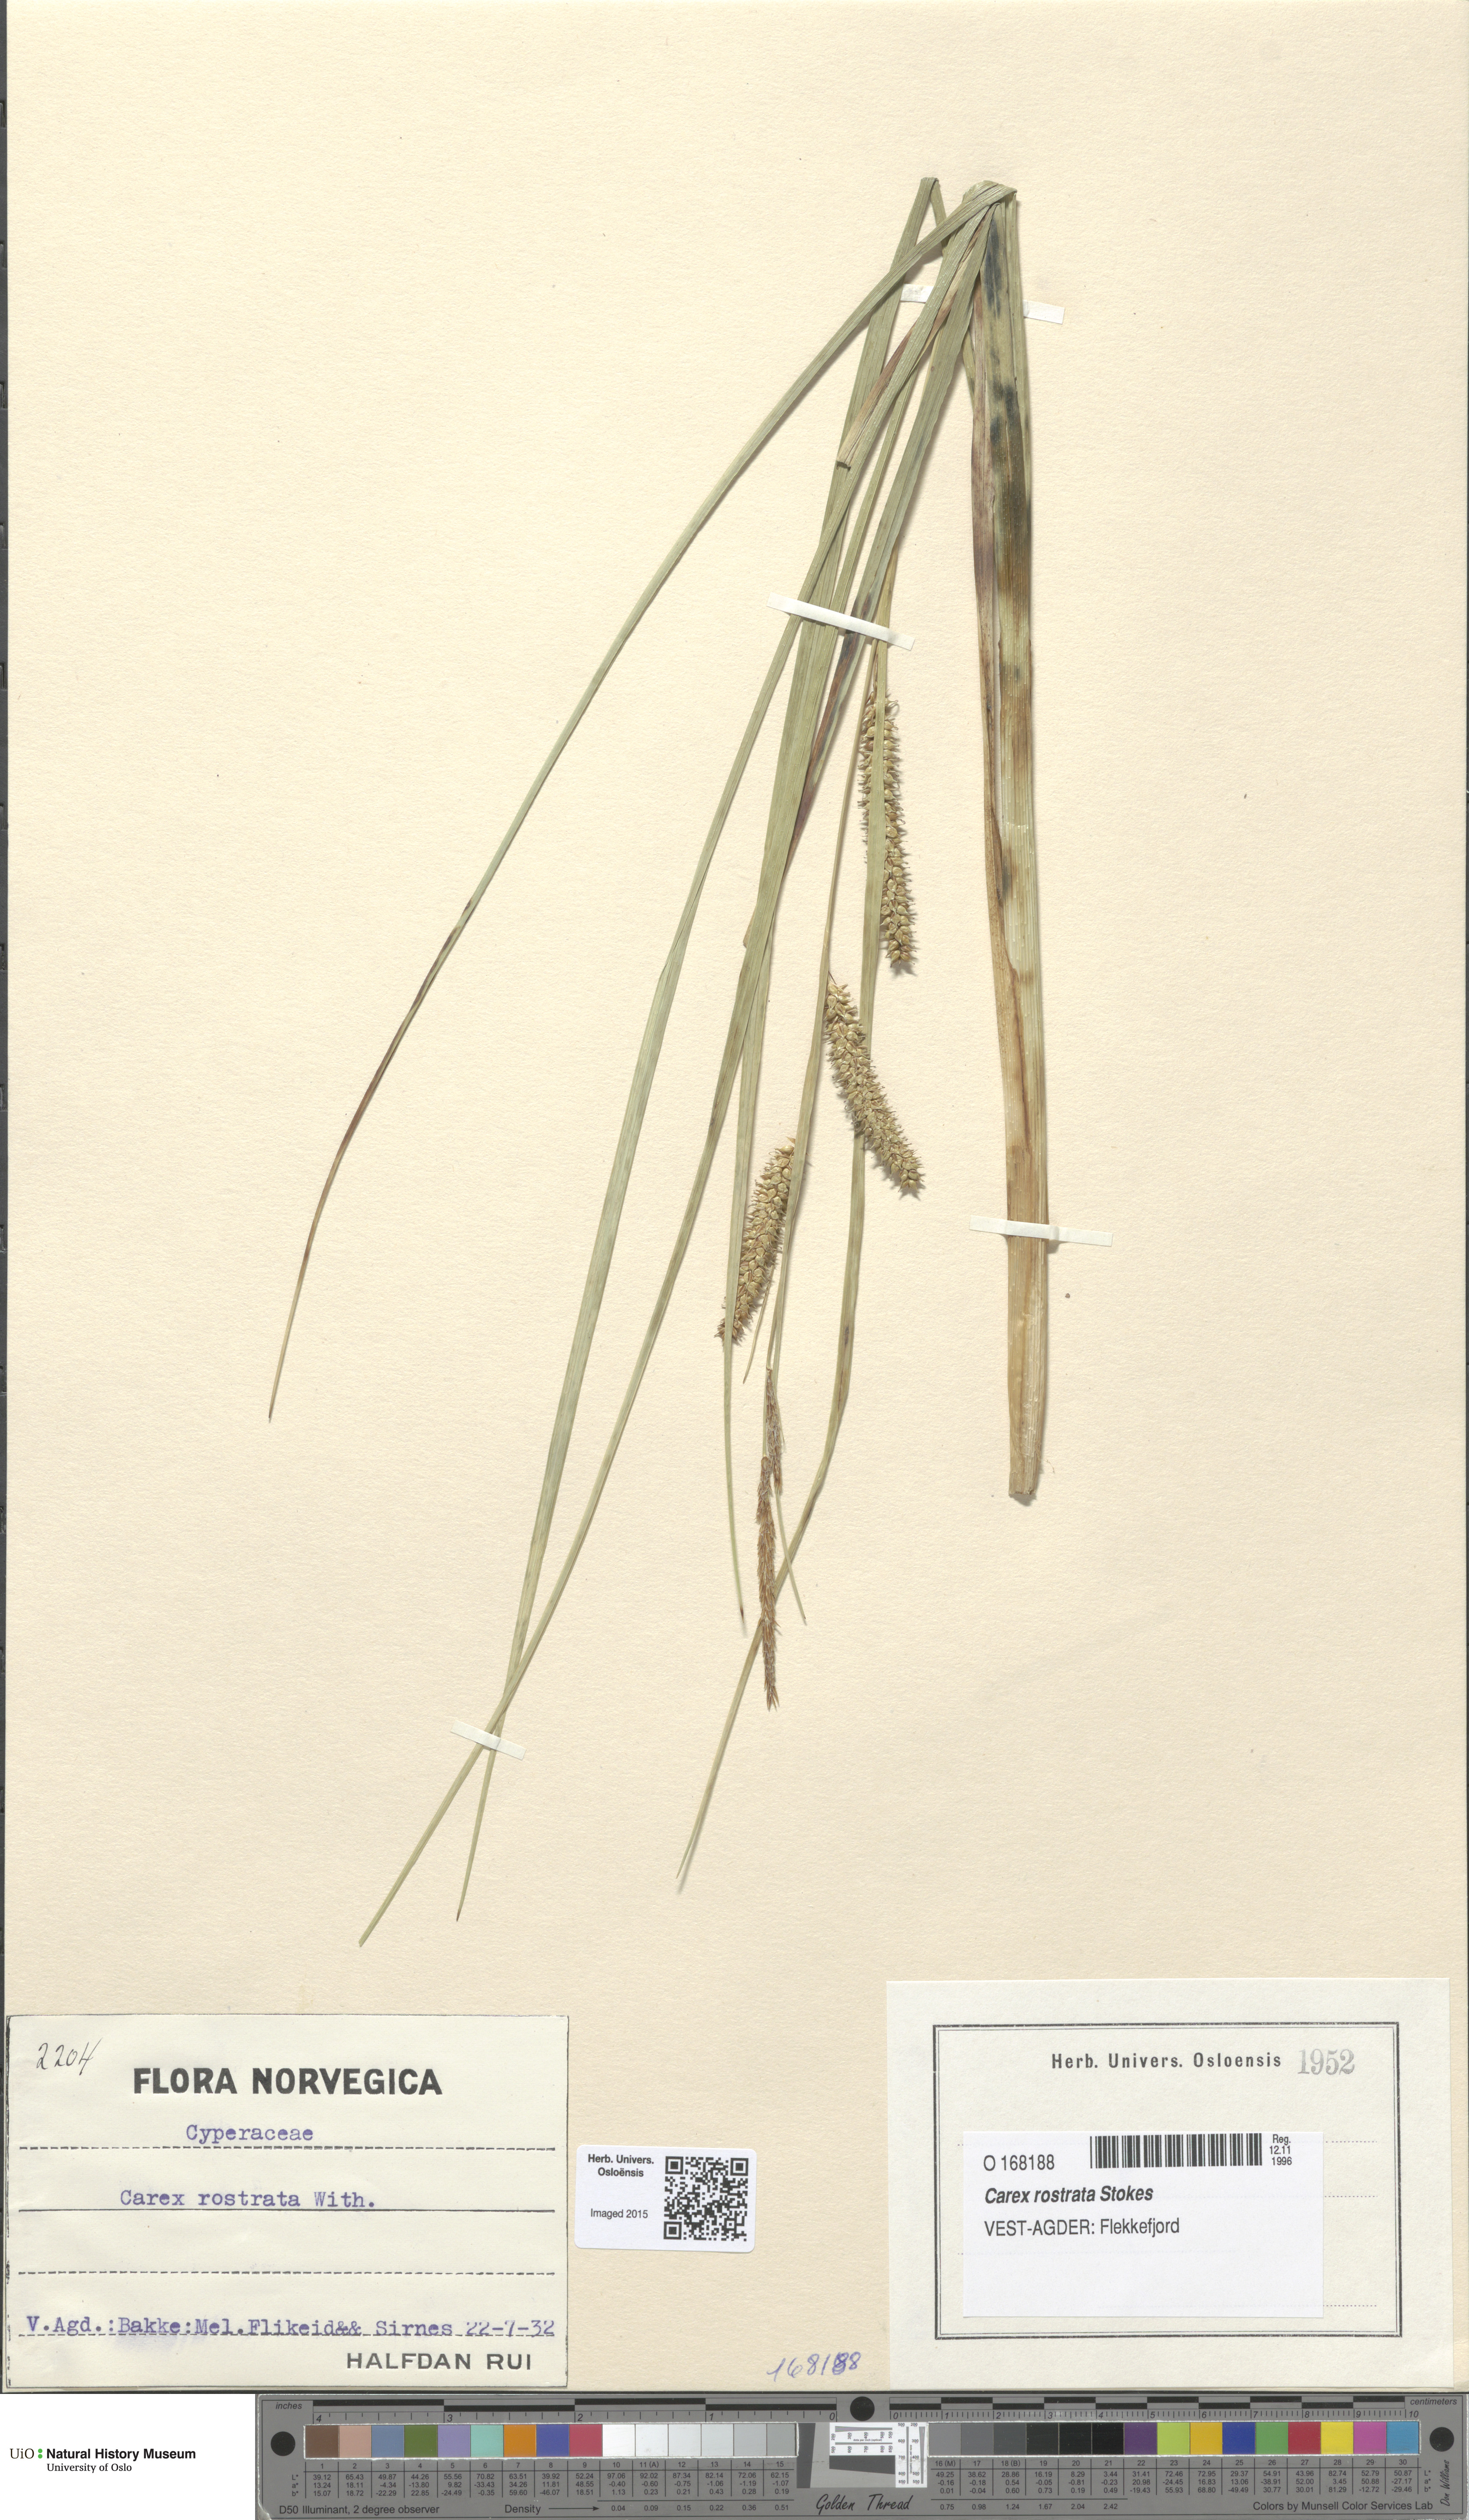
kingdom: Plantae
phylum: Tracheophyta
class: Liliopsida
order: Poales
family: Cyperaceae
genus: Carex
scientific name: Carex rostrata
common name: Bottle sedge
